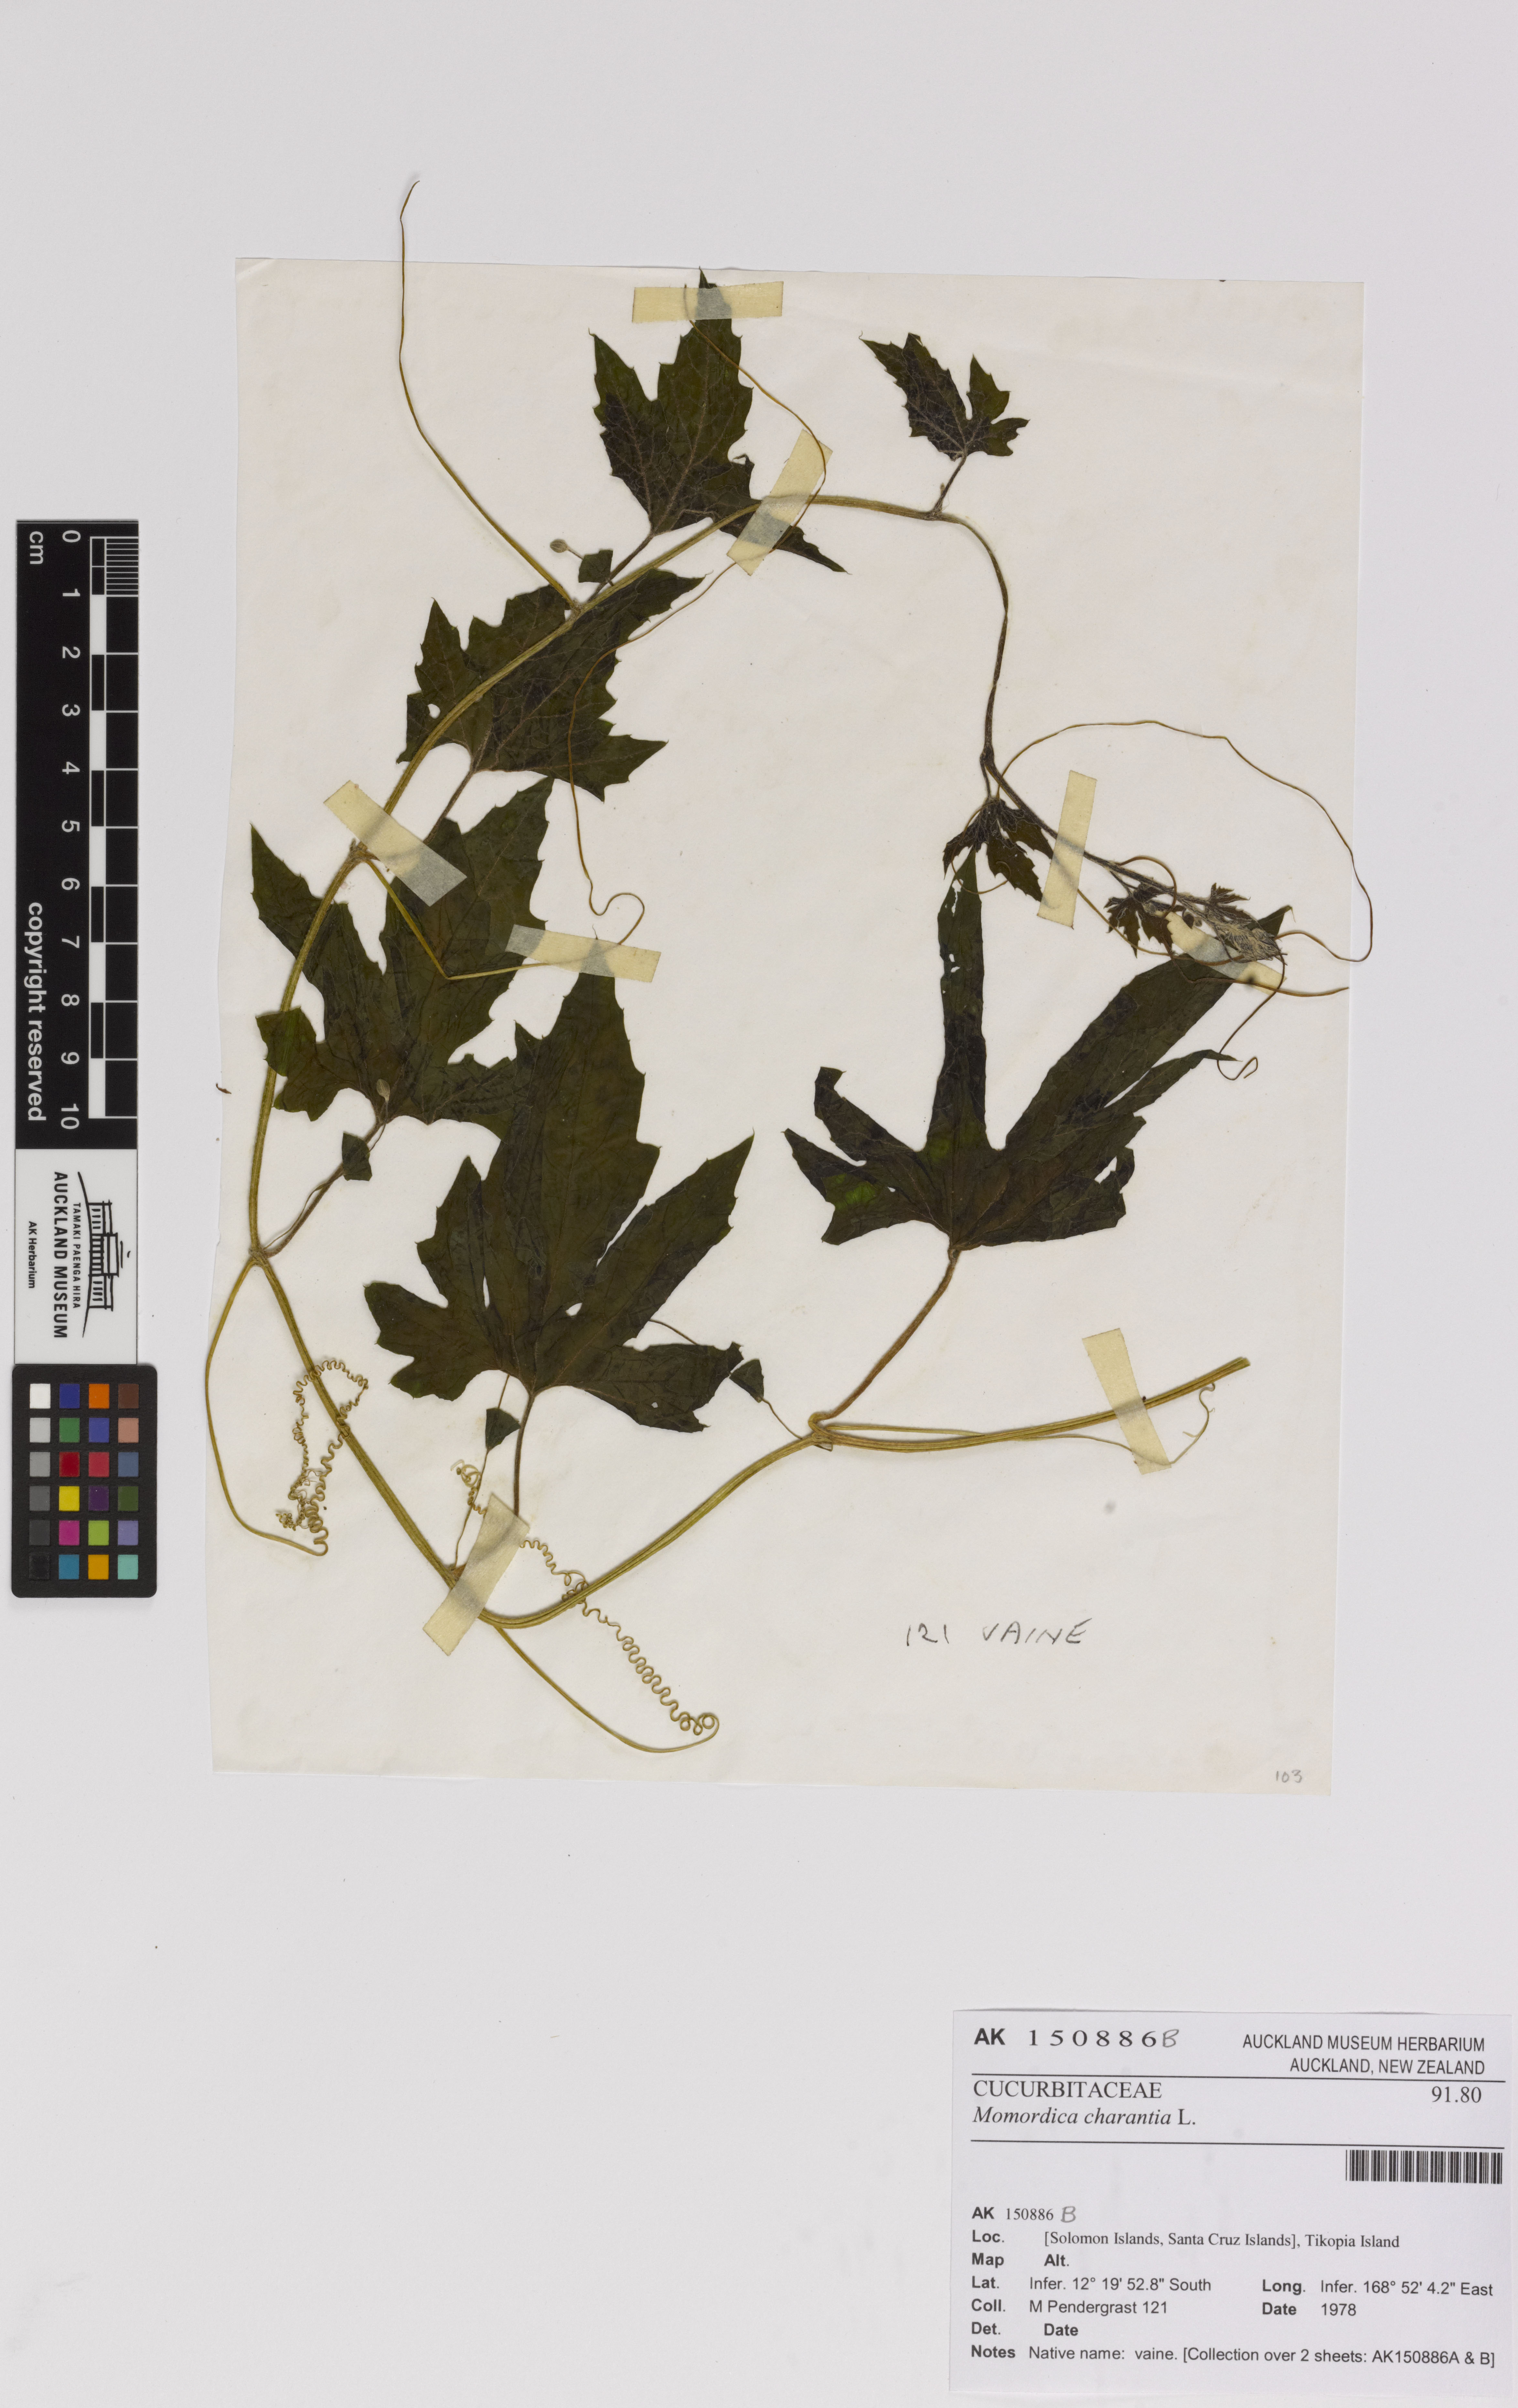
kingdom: Plantae
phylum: Tracheophyta
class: Magnoliopsida
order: Cucurbitales
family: Cucurbitaceae
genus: Momordica
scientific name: Momordica charantia
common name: Balsampear
